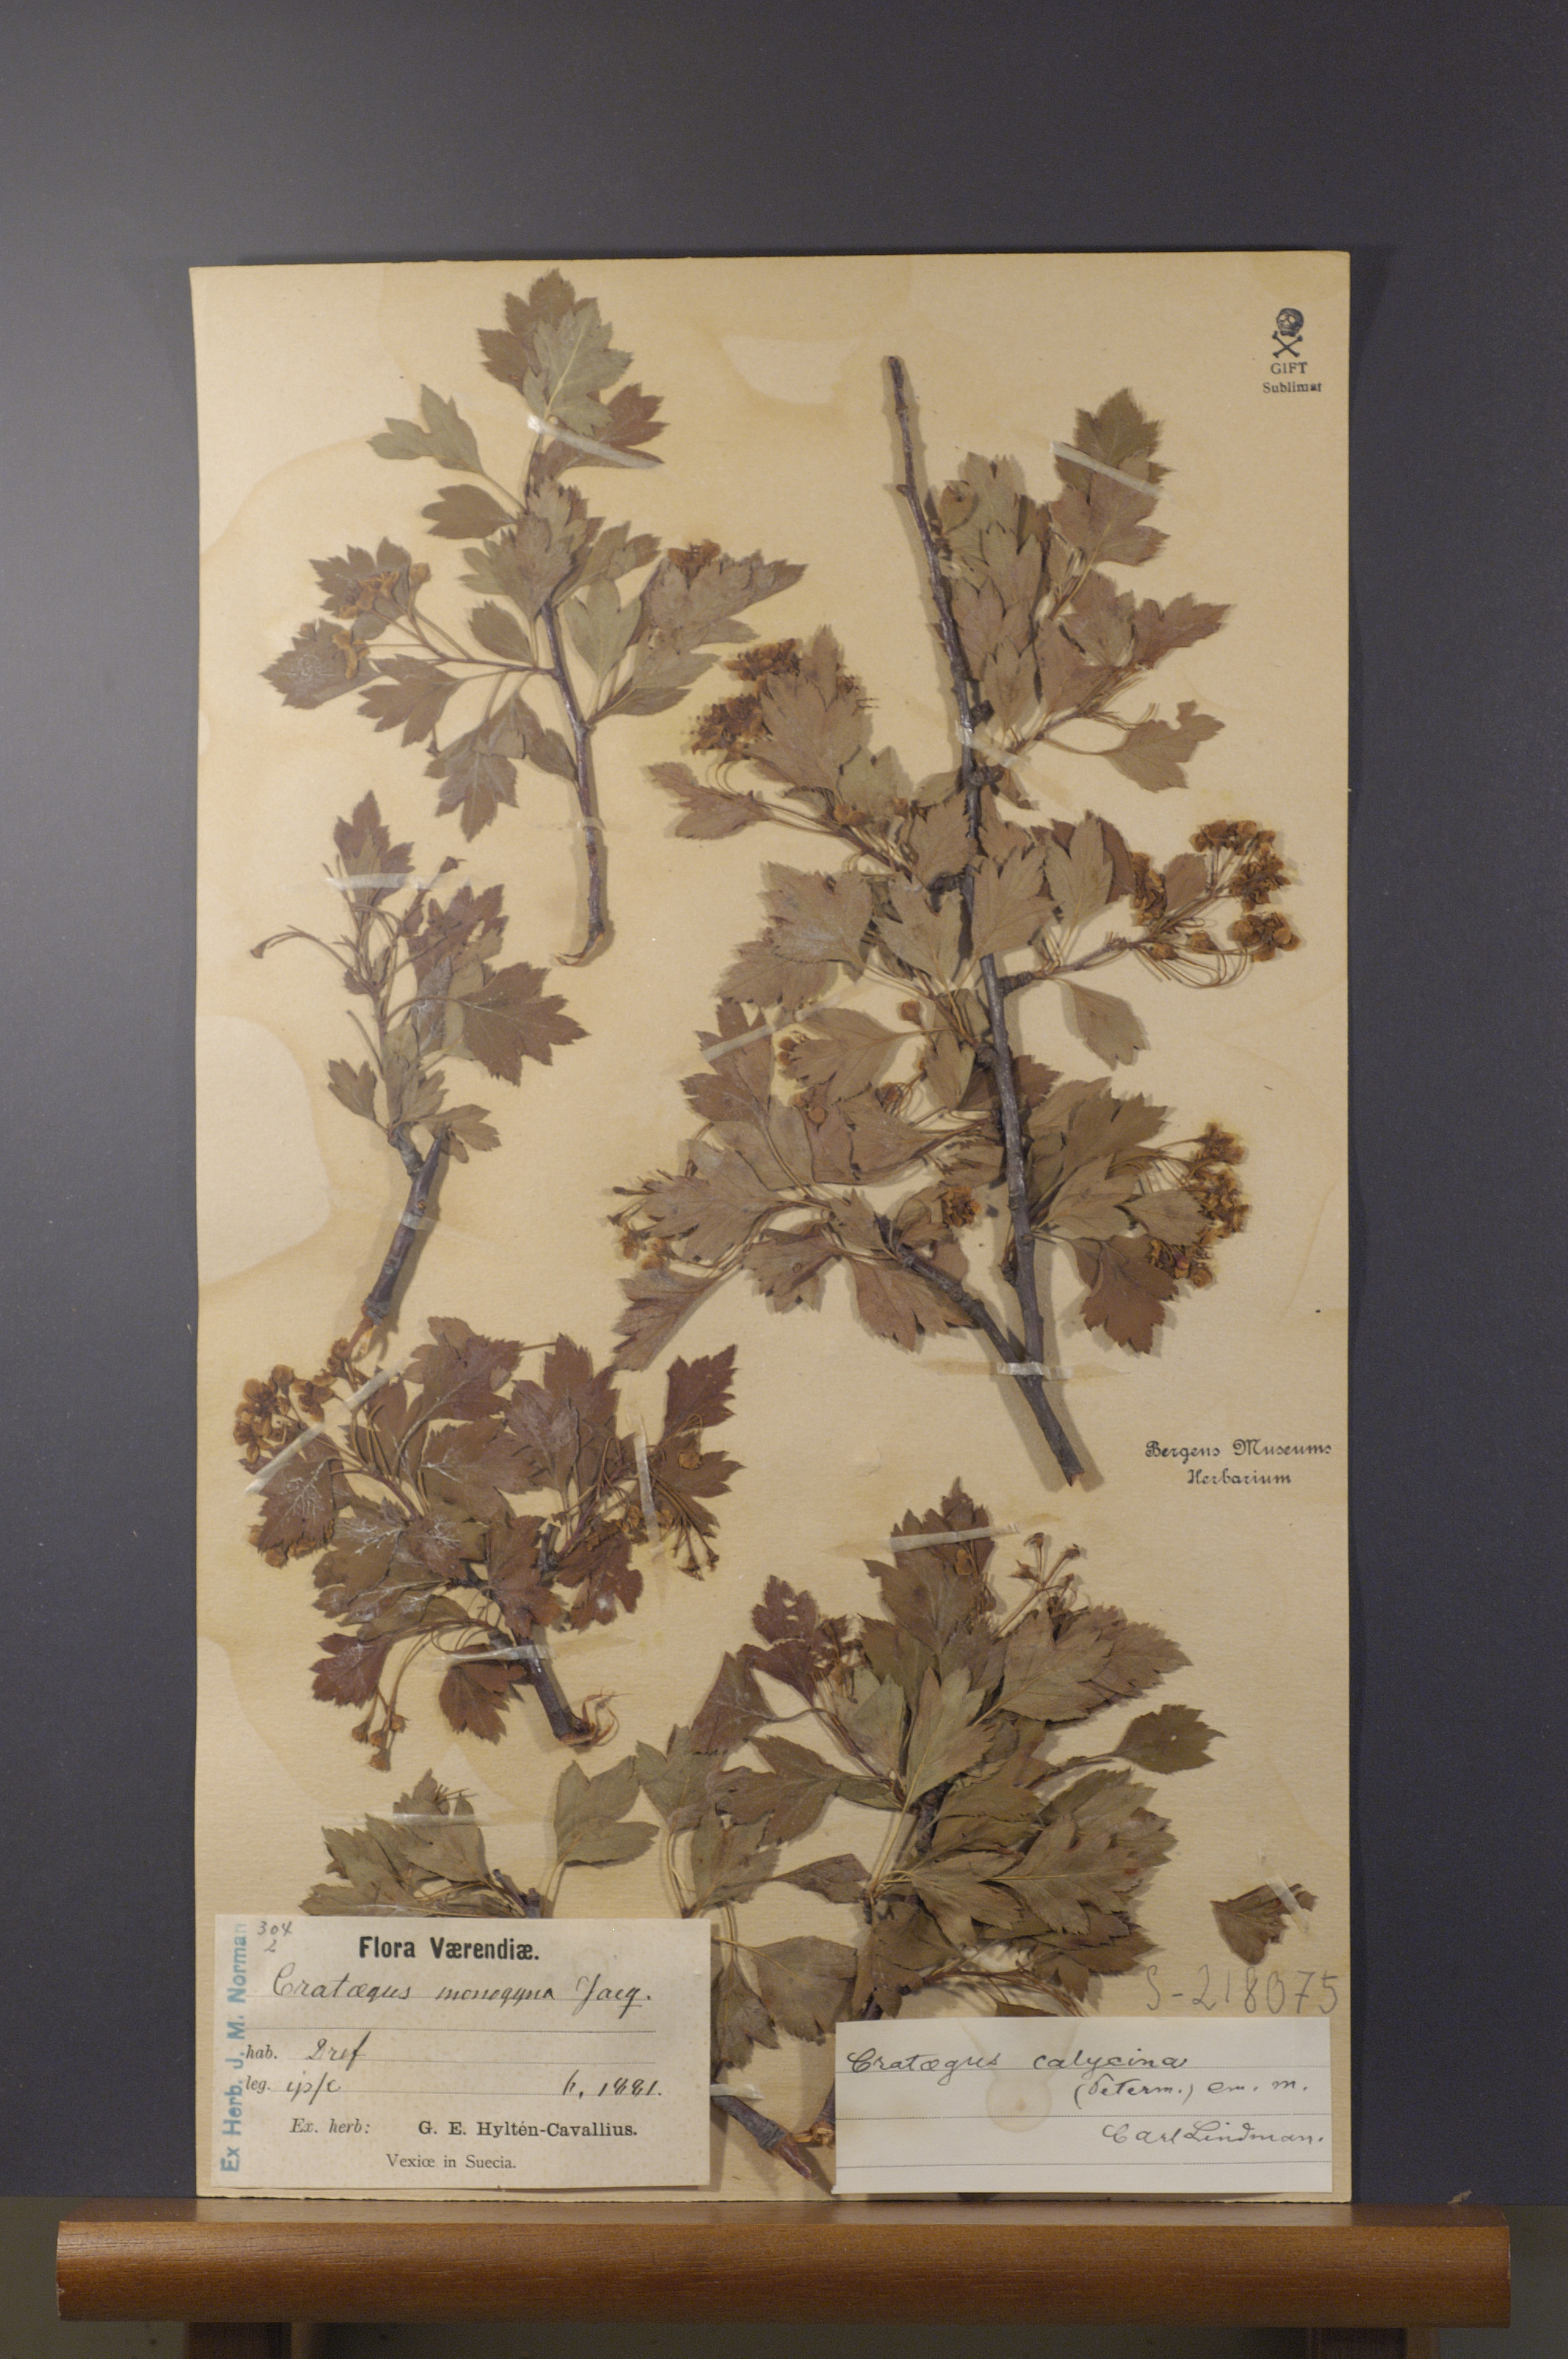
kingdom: Plantae
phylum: Tracheophyta
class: Magnoliopsida
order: Rosales
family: Rosaceae
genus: Crataegus
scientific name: Crataegus rhipidophylla
